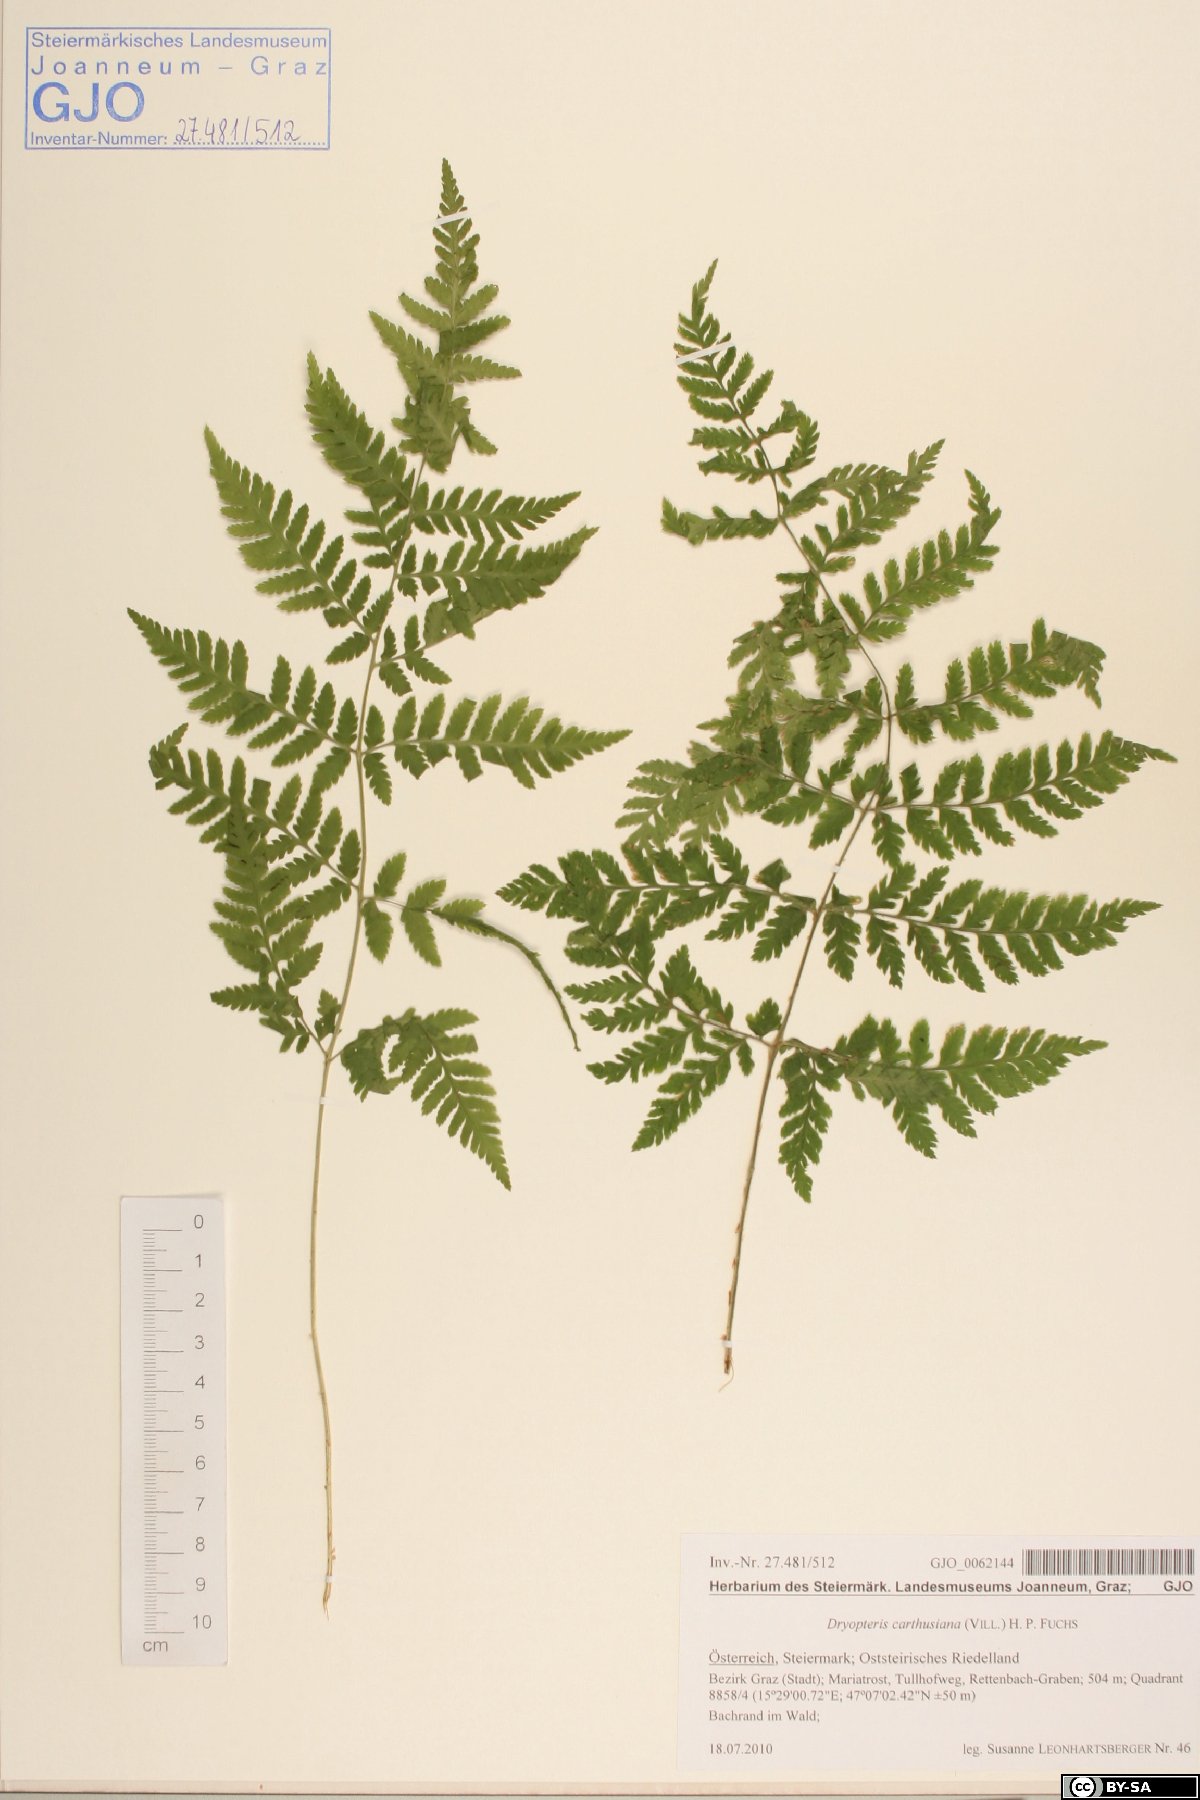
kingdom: Plantae
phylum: Tracheophyta
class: Polypodiopsida
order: Polypodiales
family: Dryopteridaceae
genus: Dryopteris
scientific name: Dryopteris carthusiana
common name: Narrow buckler-fern
